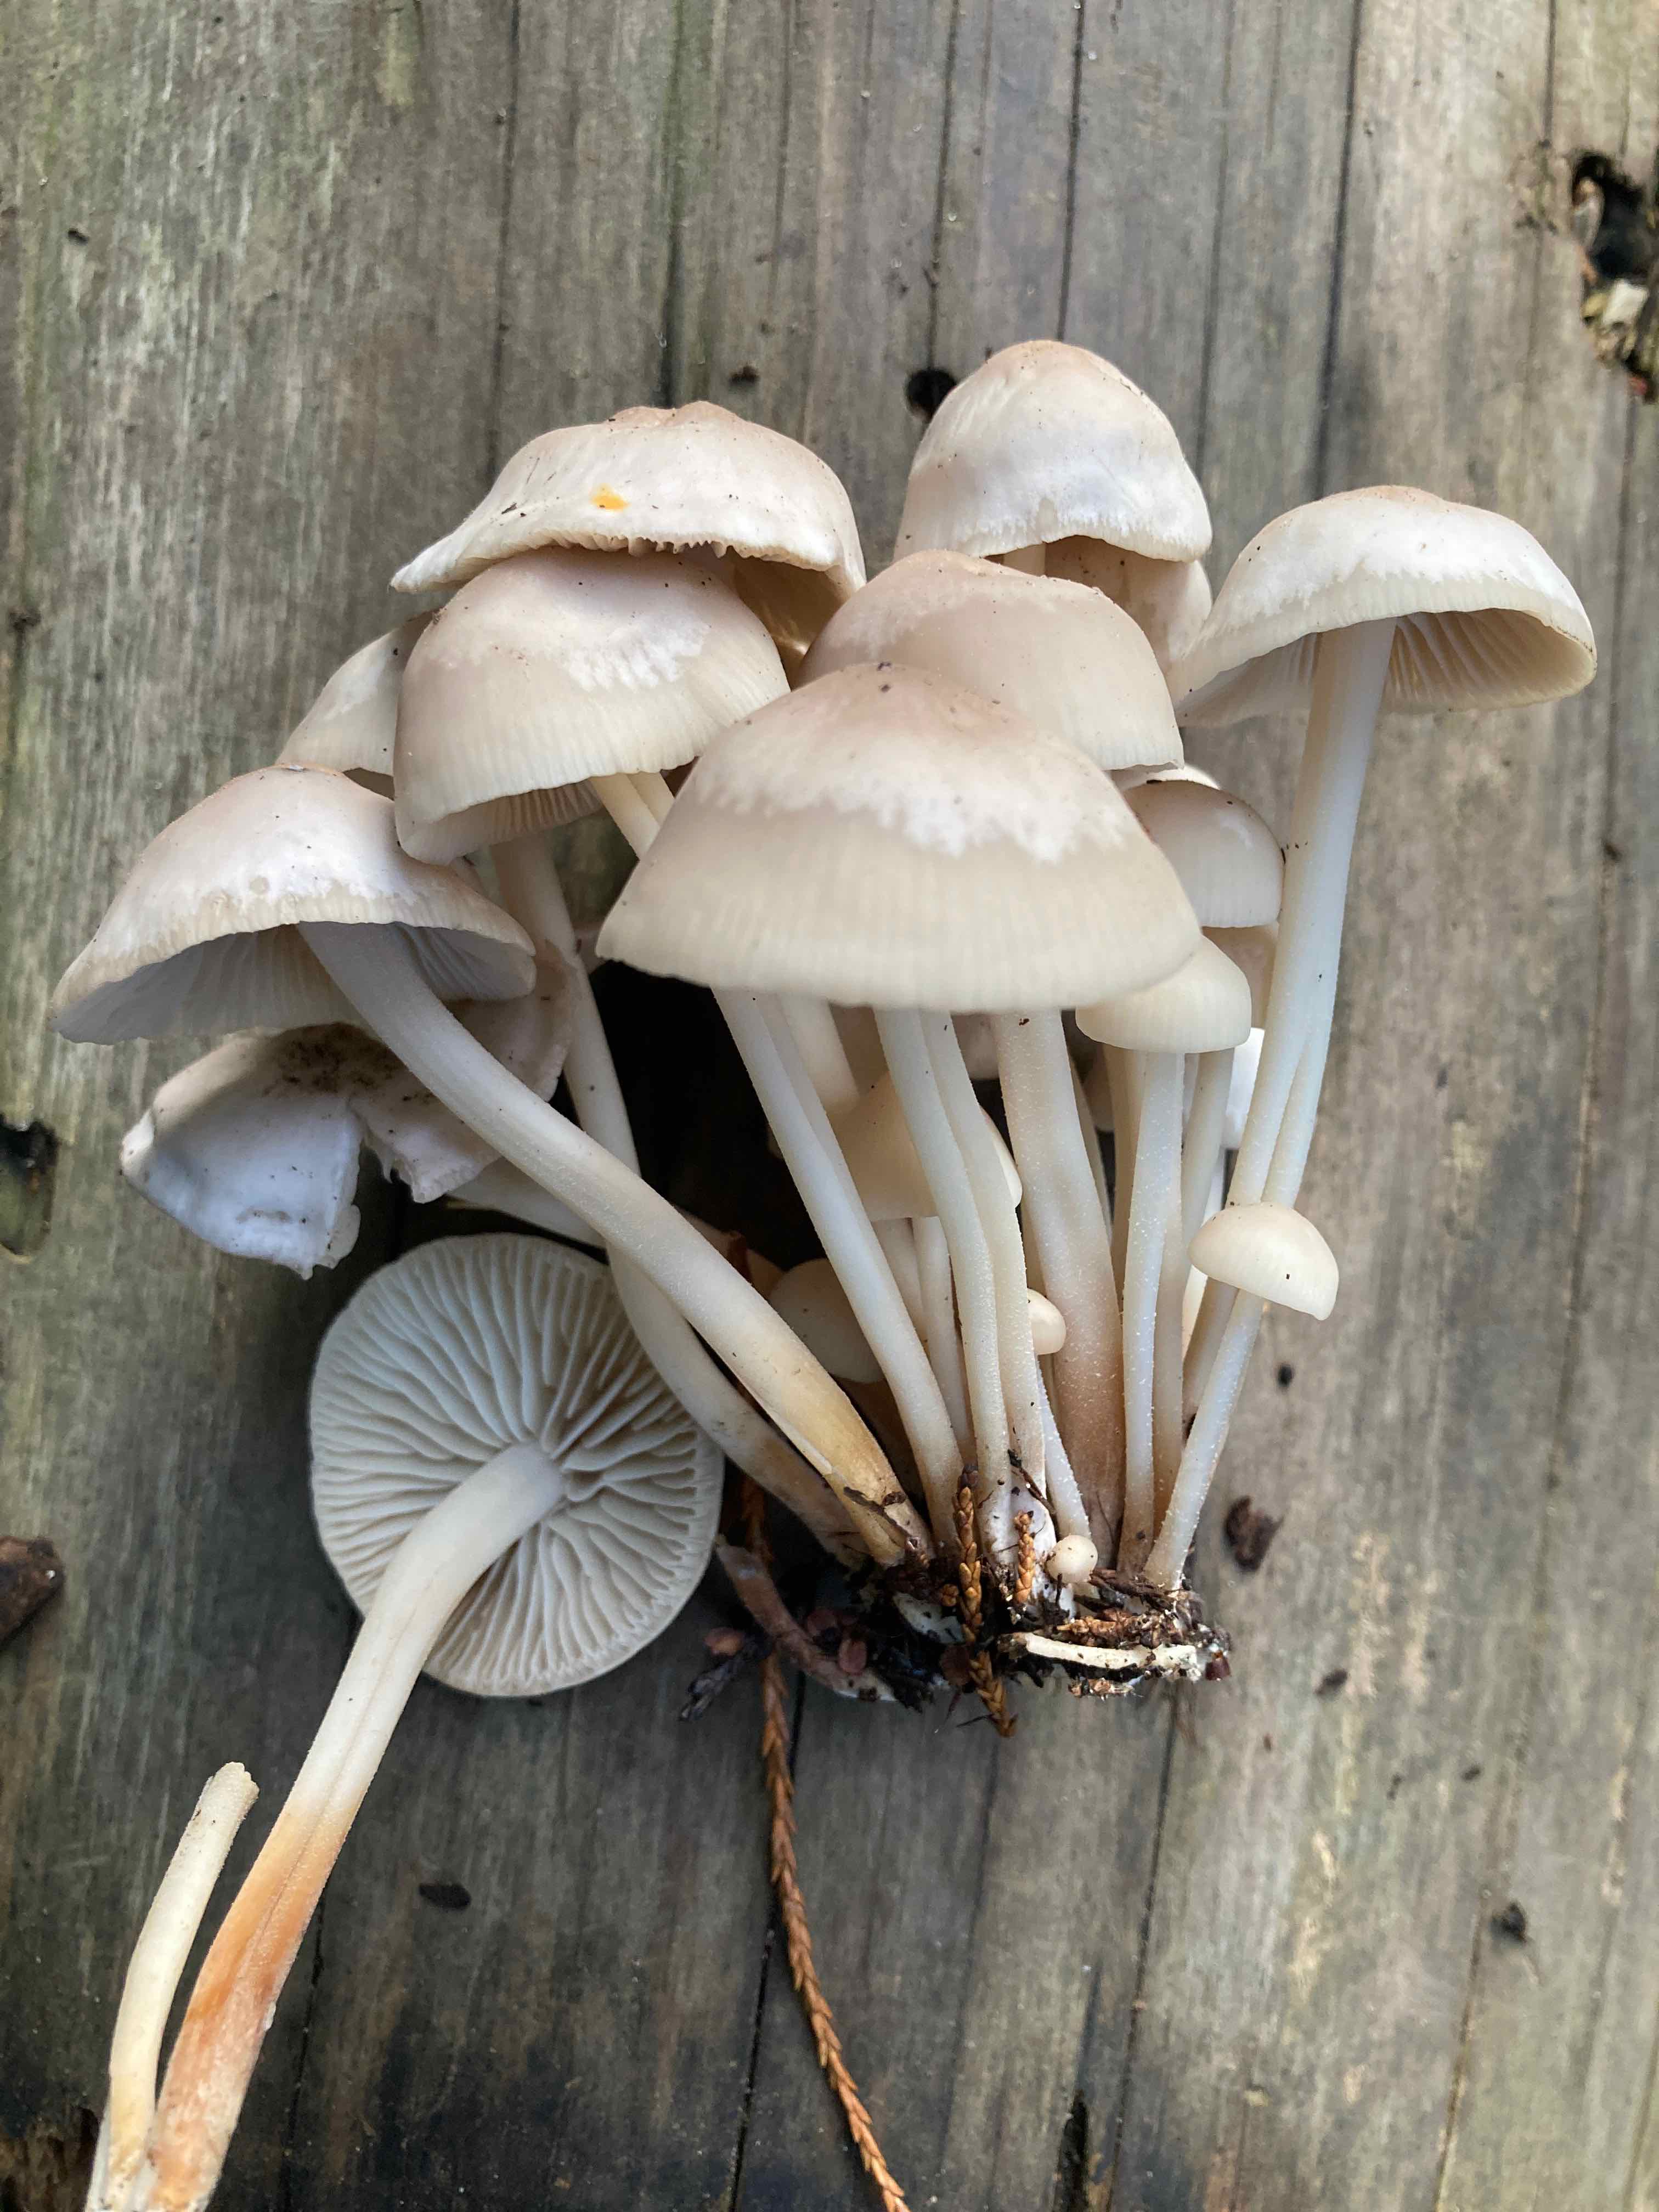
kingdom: Fungi
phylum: Basidiomycota
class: Agaricomycetes
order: Agaricales
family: Marasmiaceae
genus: Marasmius
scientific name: Marasmius wynneae
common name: hvælvet bruskhat
